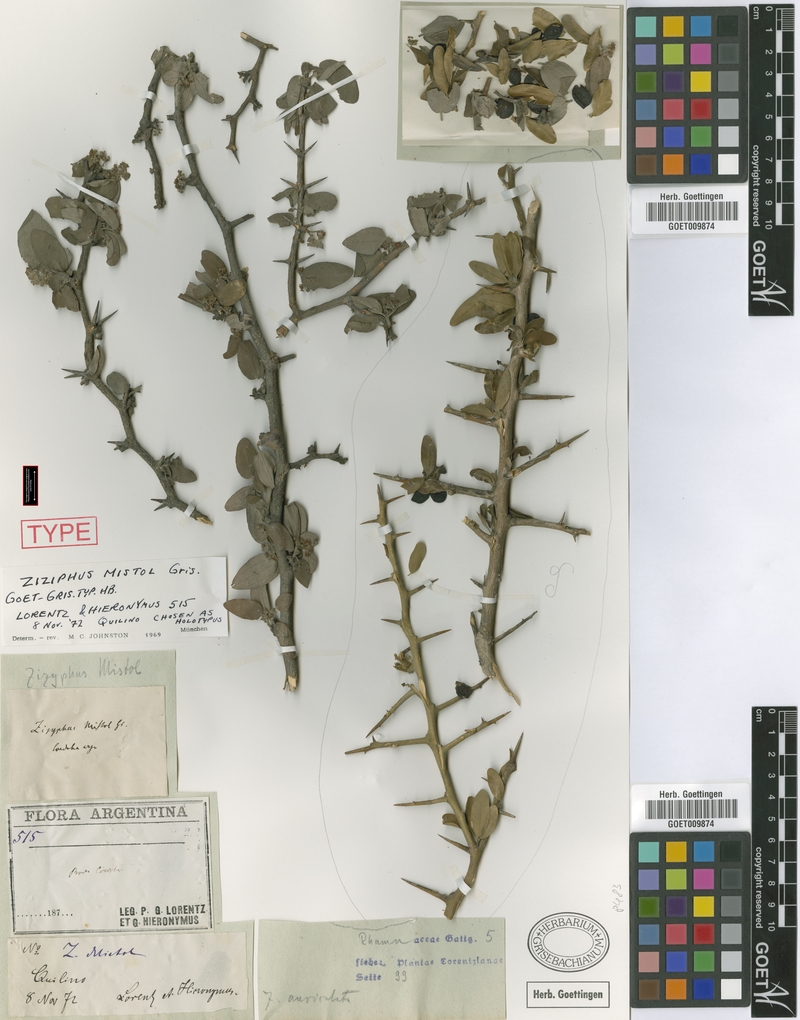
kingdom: Plantae
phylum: Tracheophyta
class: Magnoliopsida
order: Rosales
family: Rhamnaceae
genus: Sarcomphalus
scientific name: Sarcomphalus mistol
